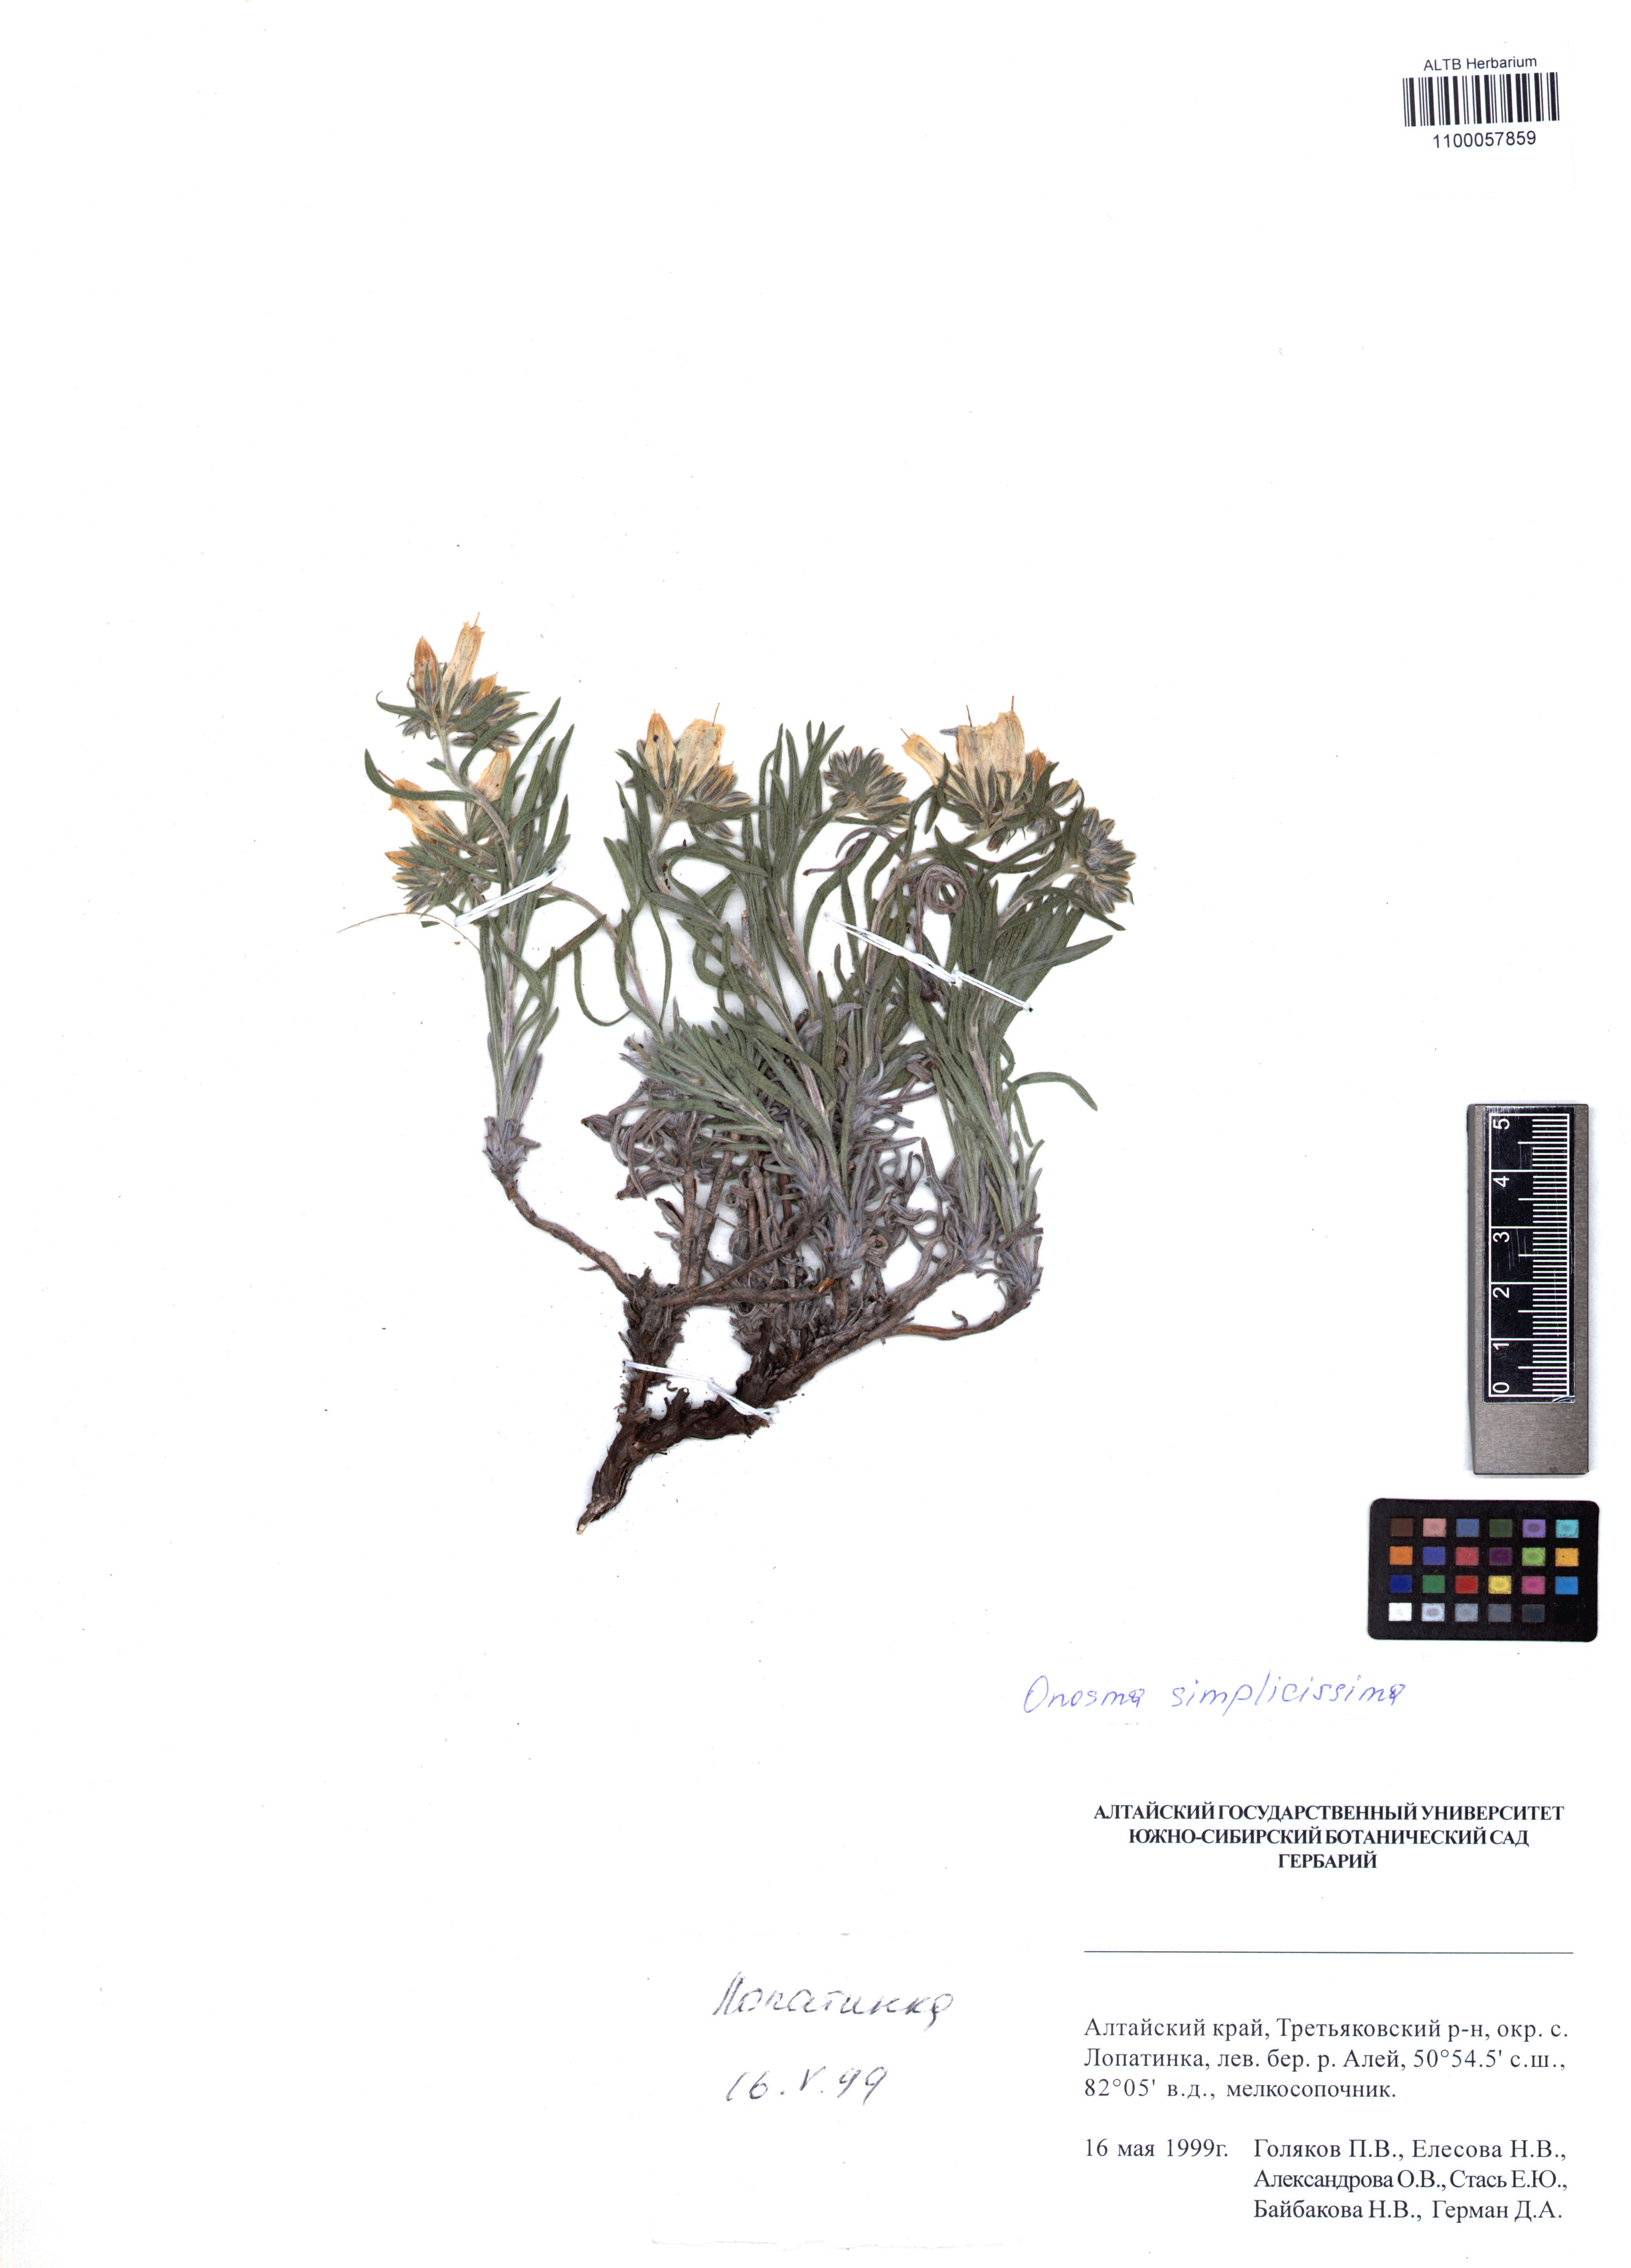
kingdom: Plantae
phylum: Tracheophyta
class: Magnoliopsida
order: Boraginales
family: Boraginaceae
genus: Onosma
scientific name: Onosma simplicissima
